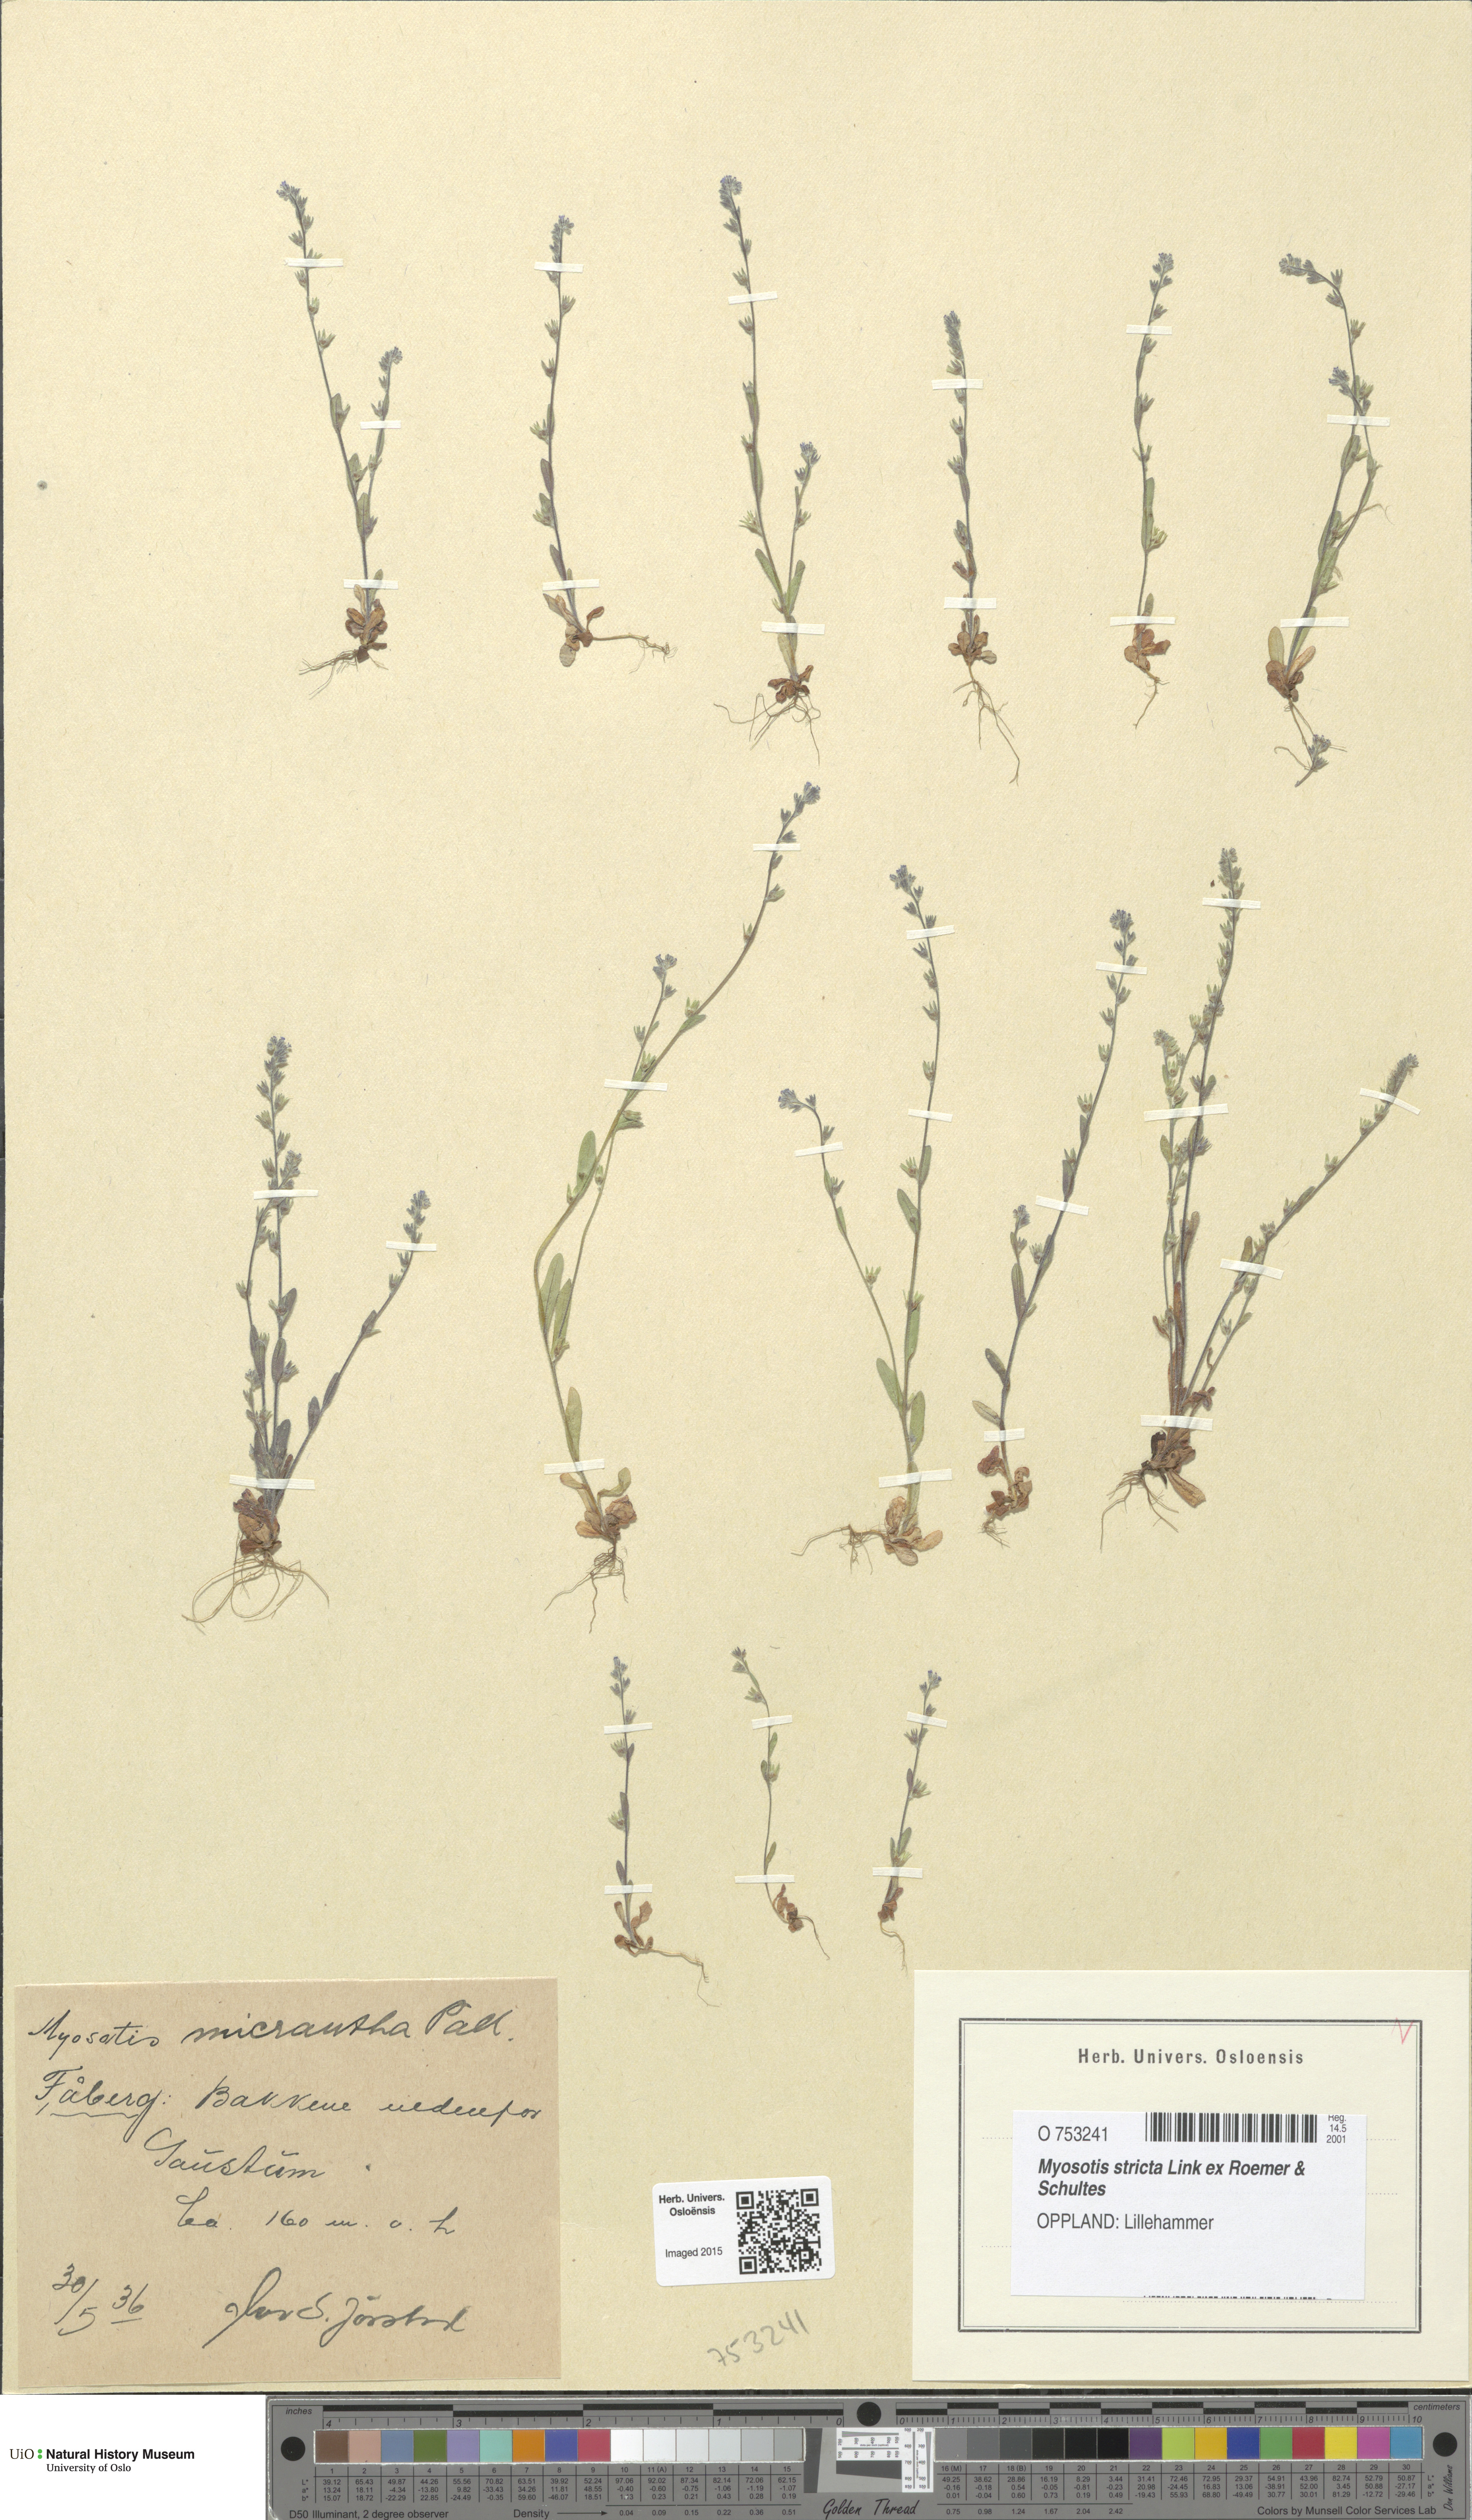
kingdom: Plantae
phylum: Tracheophyta
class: Magnoliopsida
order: Boraginales
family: Boraginaceae
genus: Myosotis
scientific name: Myosotis stricta
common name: Strict forget-me-not
